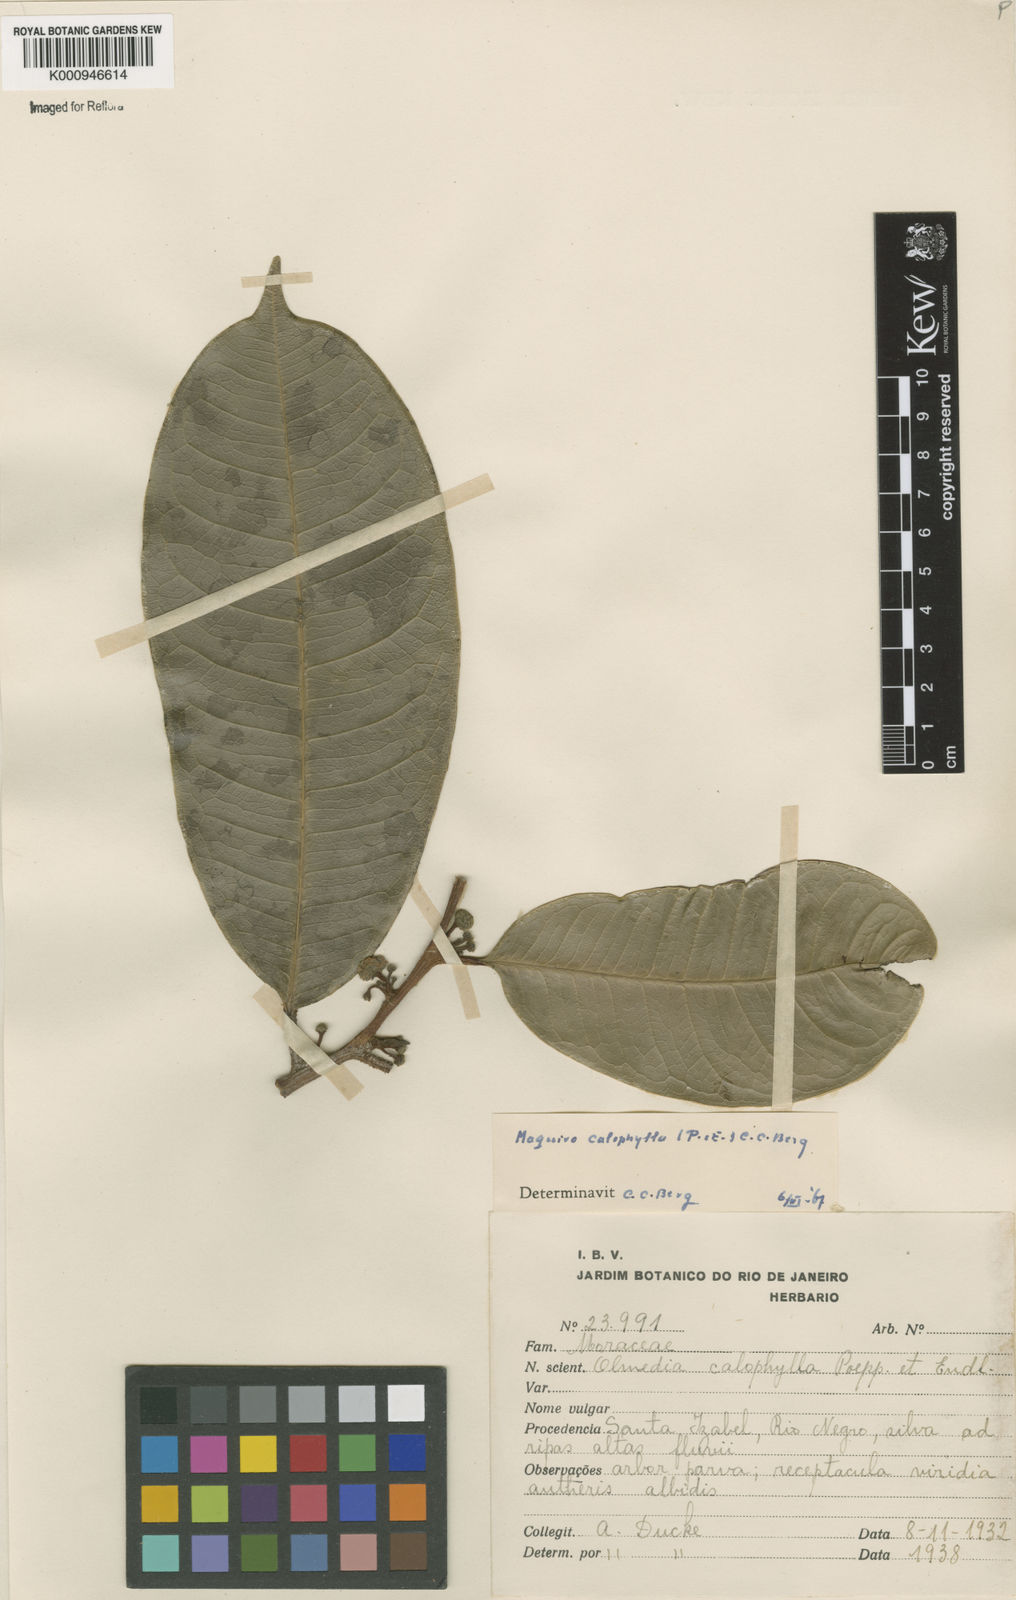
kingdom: Plantae
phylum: Tracheophyta
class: Magnoliopsida
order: Rosales
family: Moraceae
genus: Maquira
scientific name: Maquira calophylla
